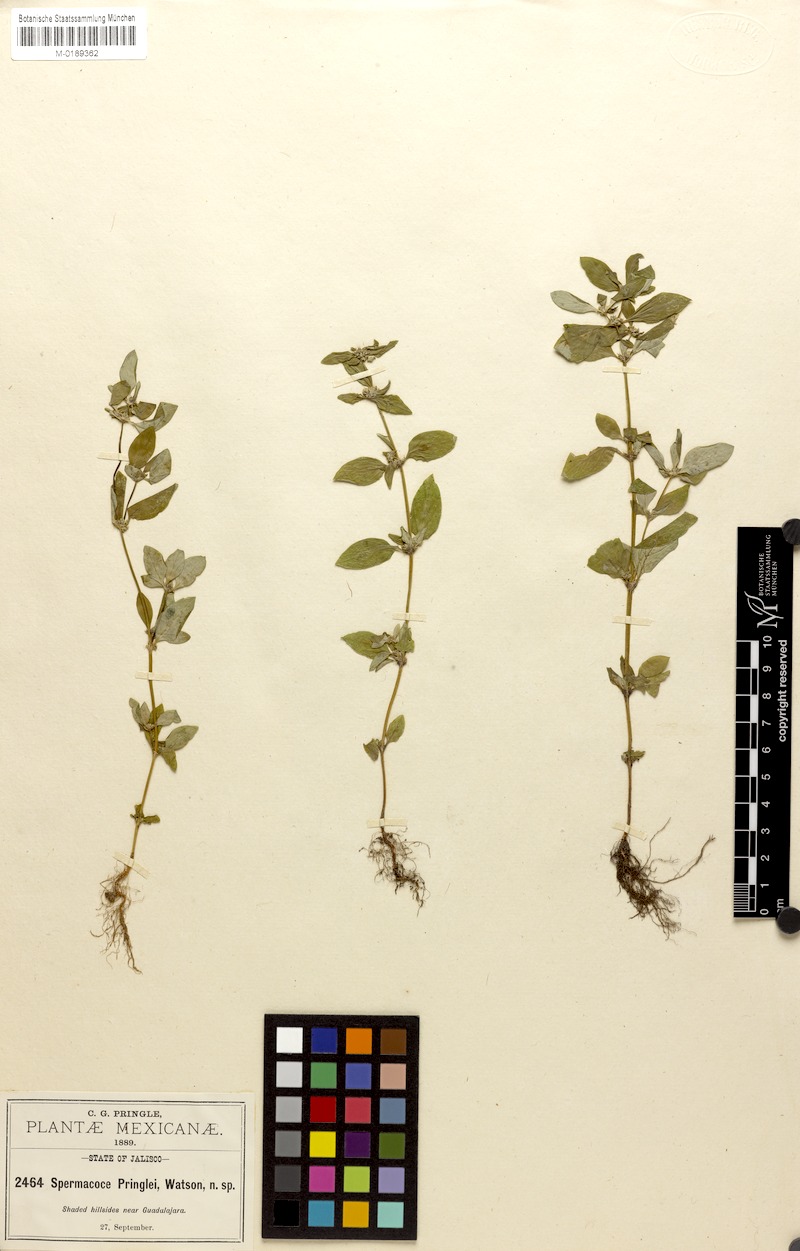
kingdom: Plantae
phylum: Tracheophyta
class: Magnoliopsida
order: Gentianales
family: Rubiaceae
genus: Spermacoce
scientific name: Spermacoce ovalifolia
